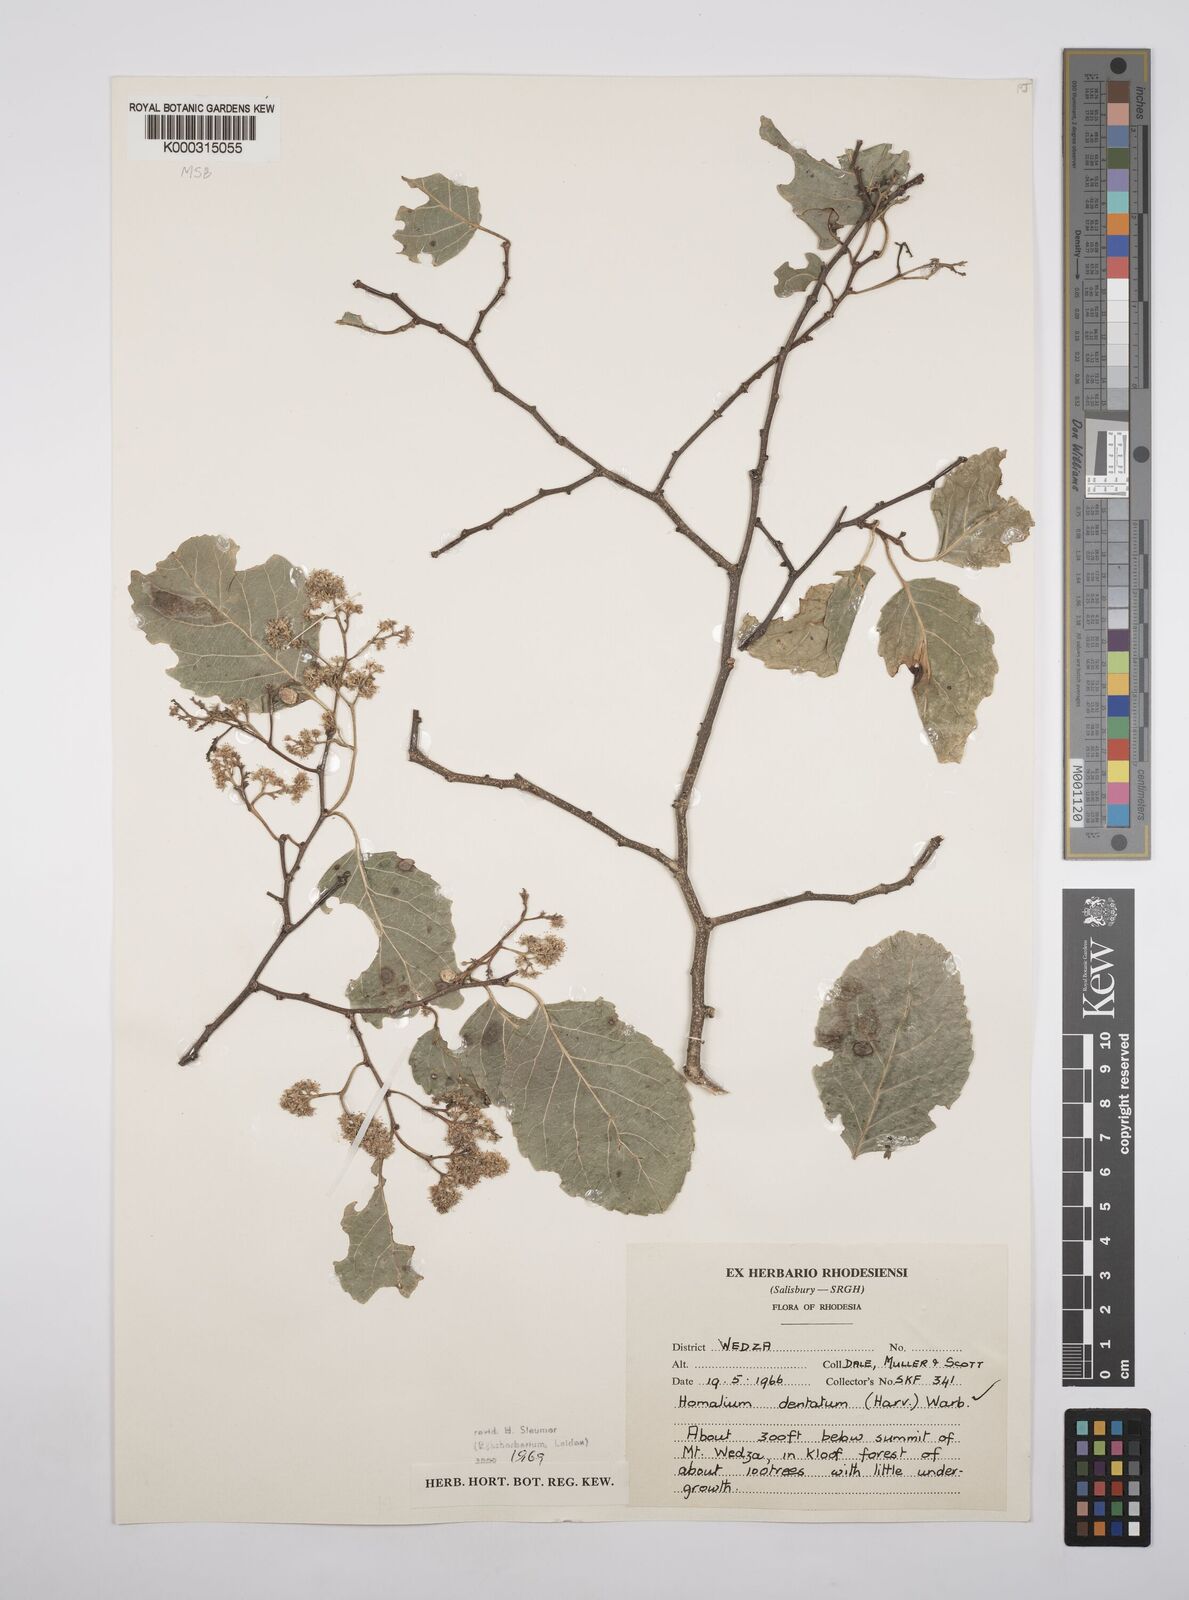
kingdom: Plantae
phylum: Tracheophyta
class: Magnoliopsida
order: Malpighiales
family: Salicaceae
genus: Homalium
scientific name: Homalium dentatum
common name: Brown ironwood
